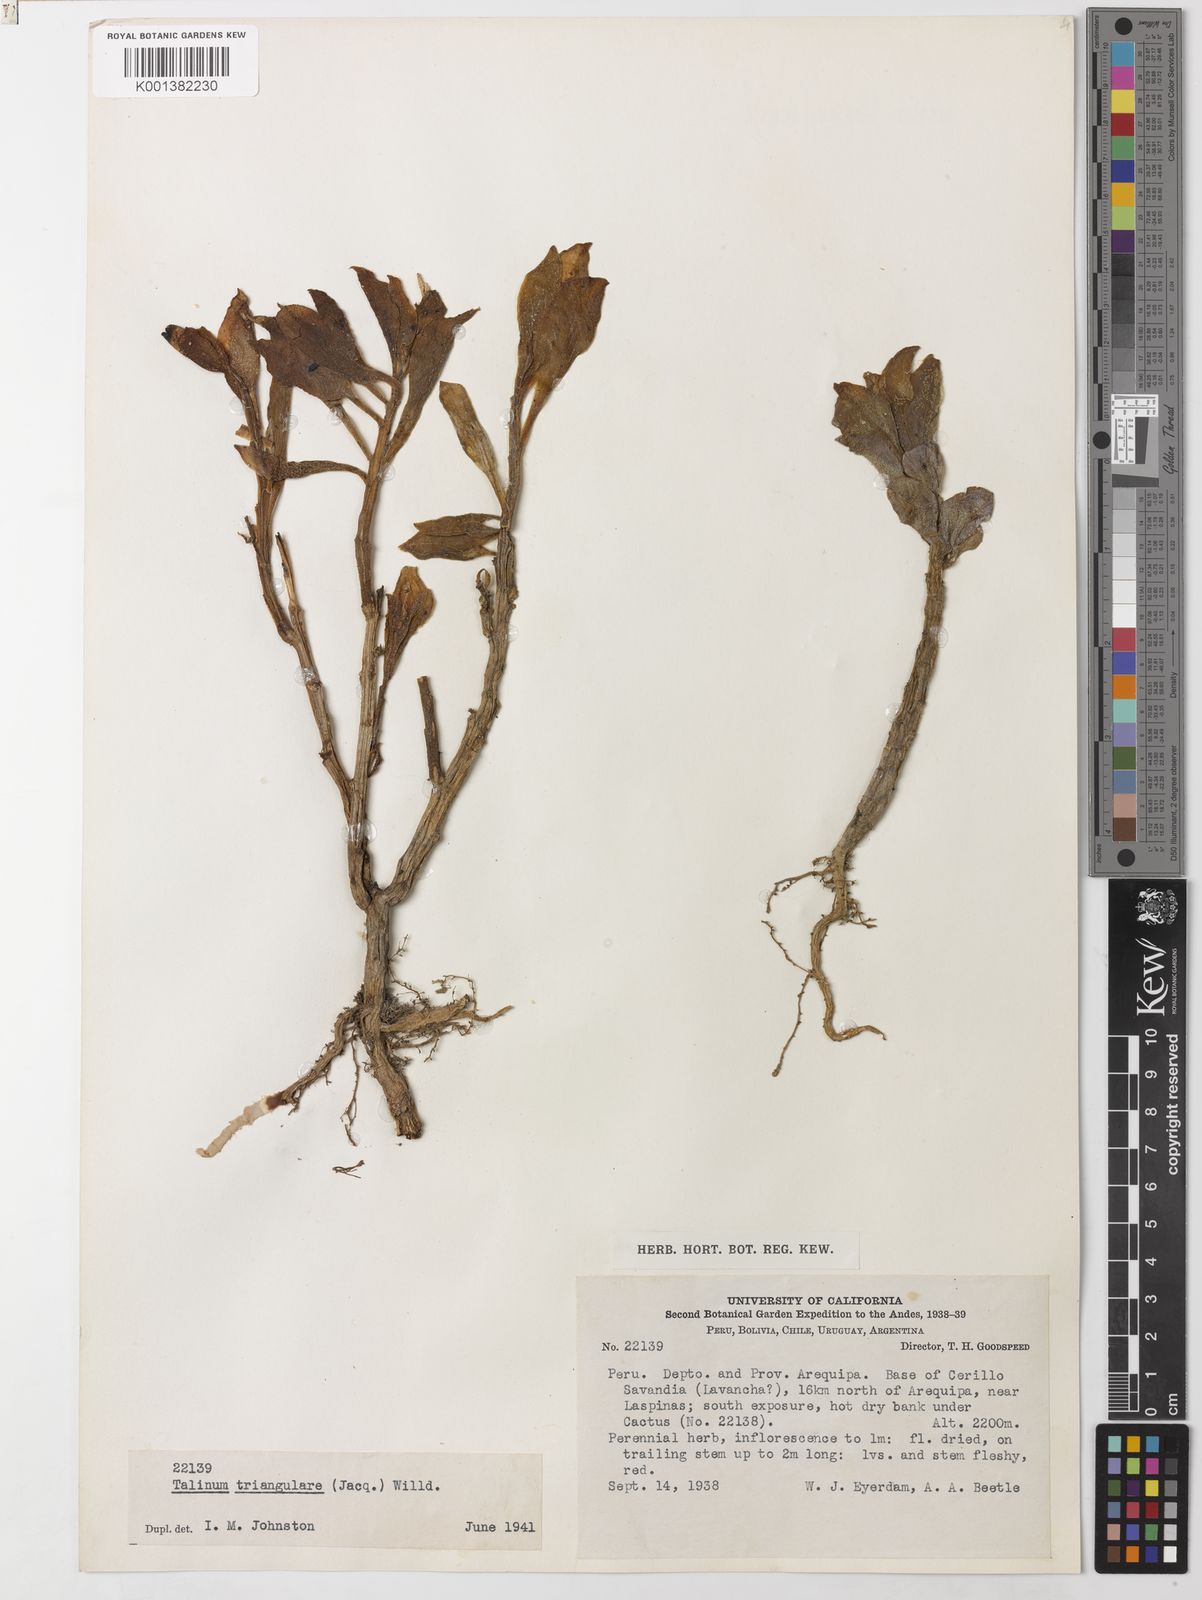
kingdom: Plantae
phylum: Tracheophyta
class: Magnoliopsida
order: Caryophyllales
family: Talinaceae
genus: Talinum
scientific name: Talinum fruticosum
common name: Verdolaga-francesa
